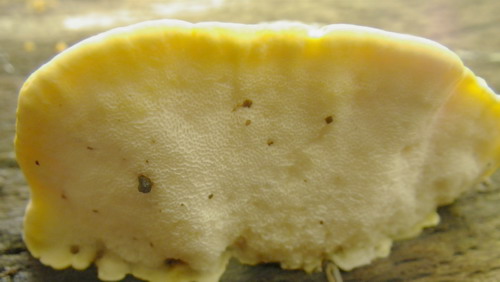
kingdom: Fungi
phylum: Basidiomycota
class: Agaricomycetes
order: Polyporales
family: Steccherinaceae
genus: Antrodiella
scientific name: Antrodiella serpula
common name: gulrandet elastikporesvamp
